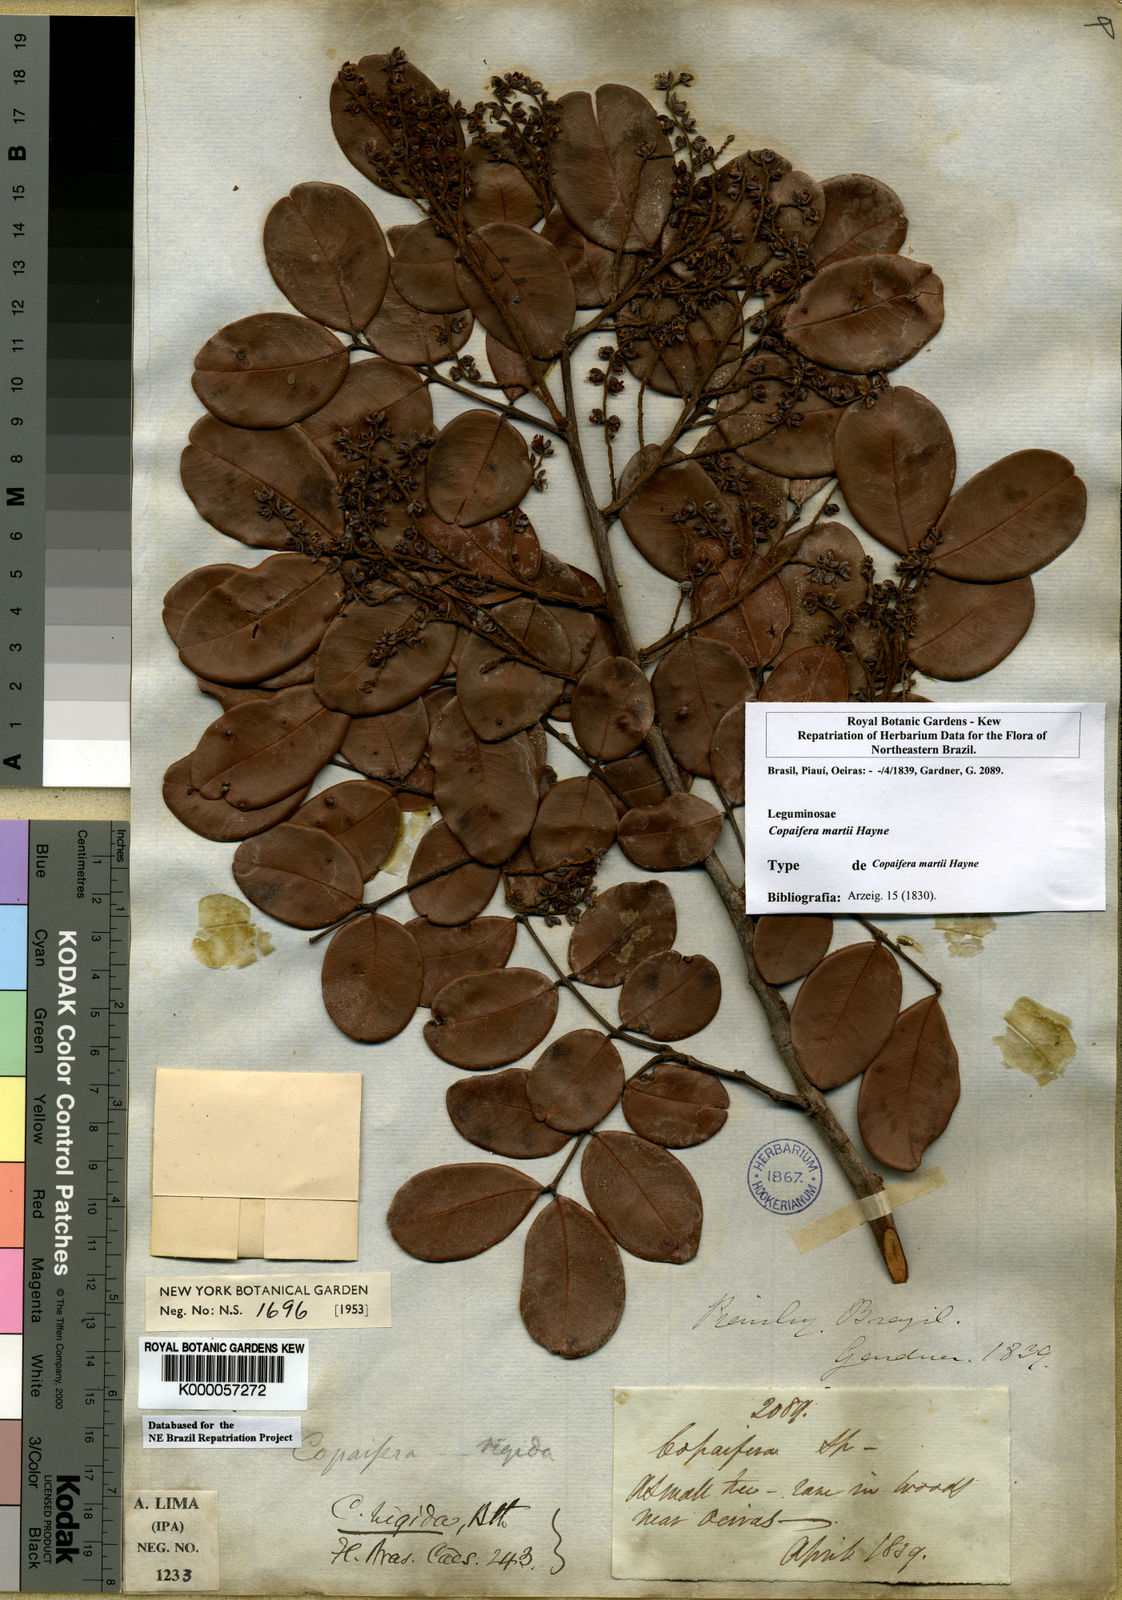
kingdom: Plantae
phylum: Tracheophyta
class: Magnoliopsida
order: Fabales
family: Fabaceae
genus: Copaifera
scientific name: Copaifera martii
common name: Copaiba
